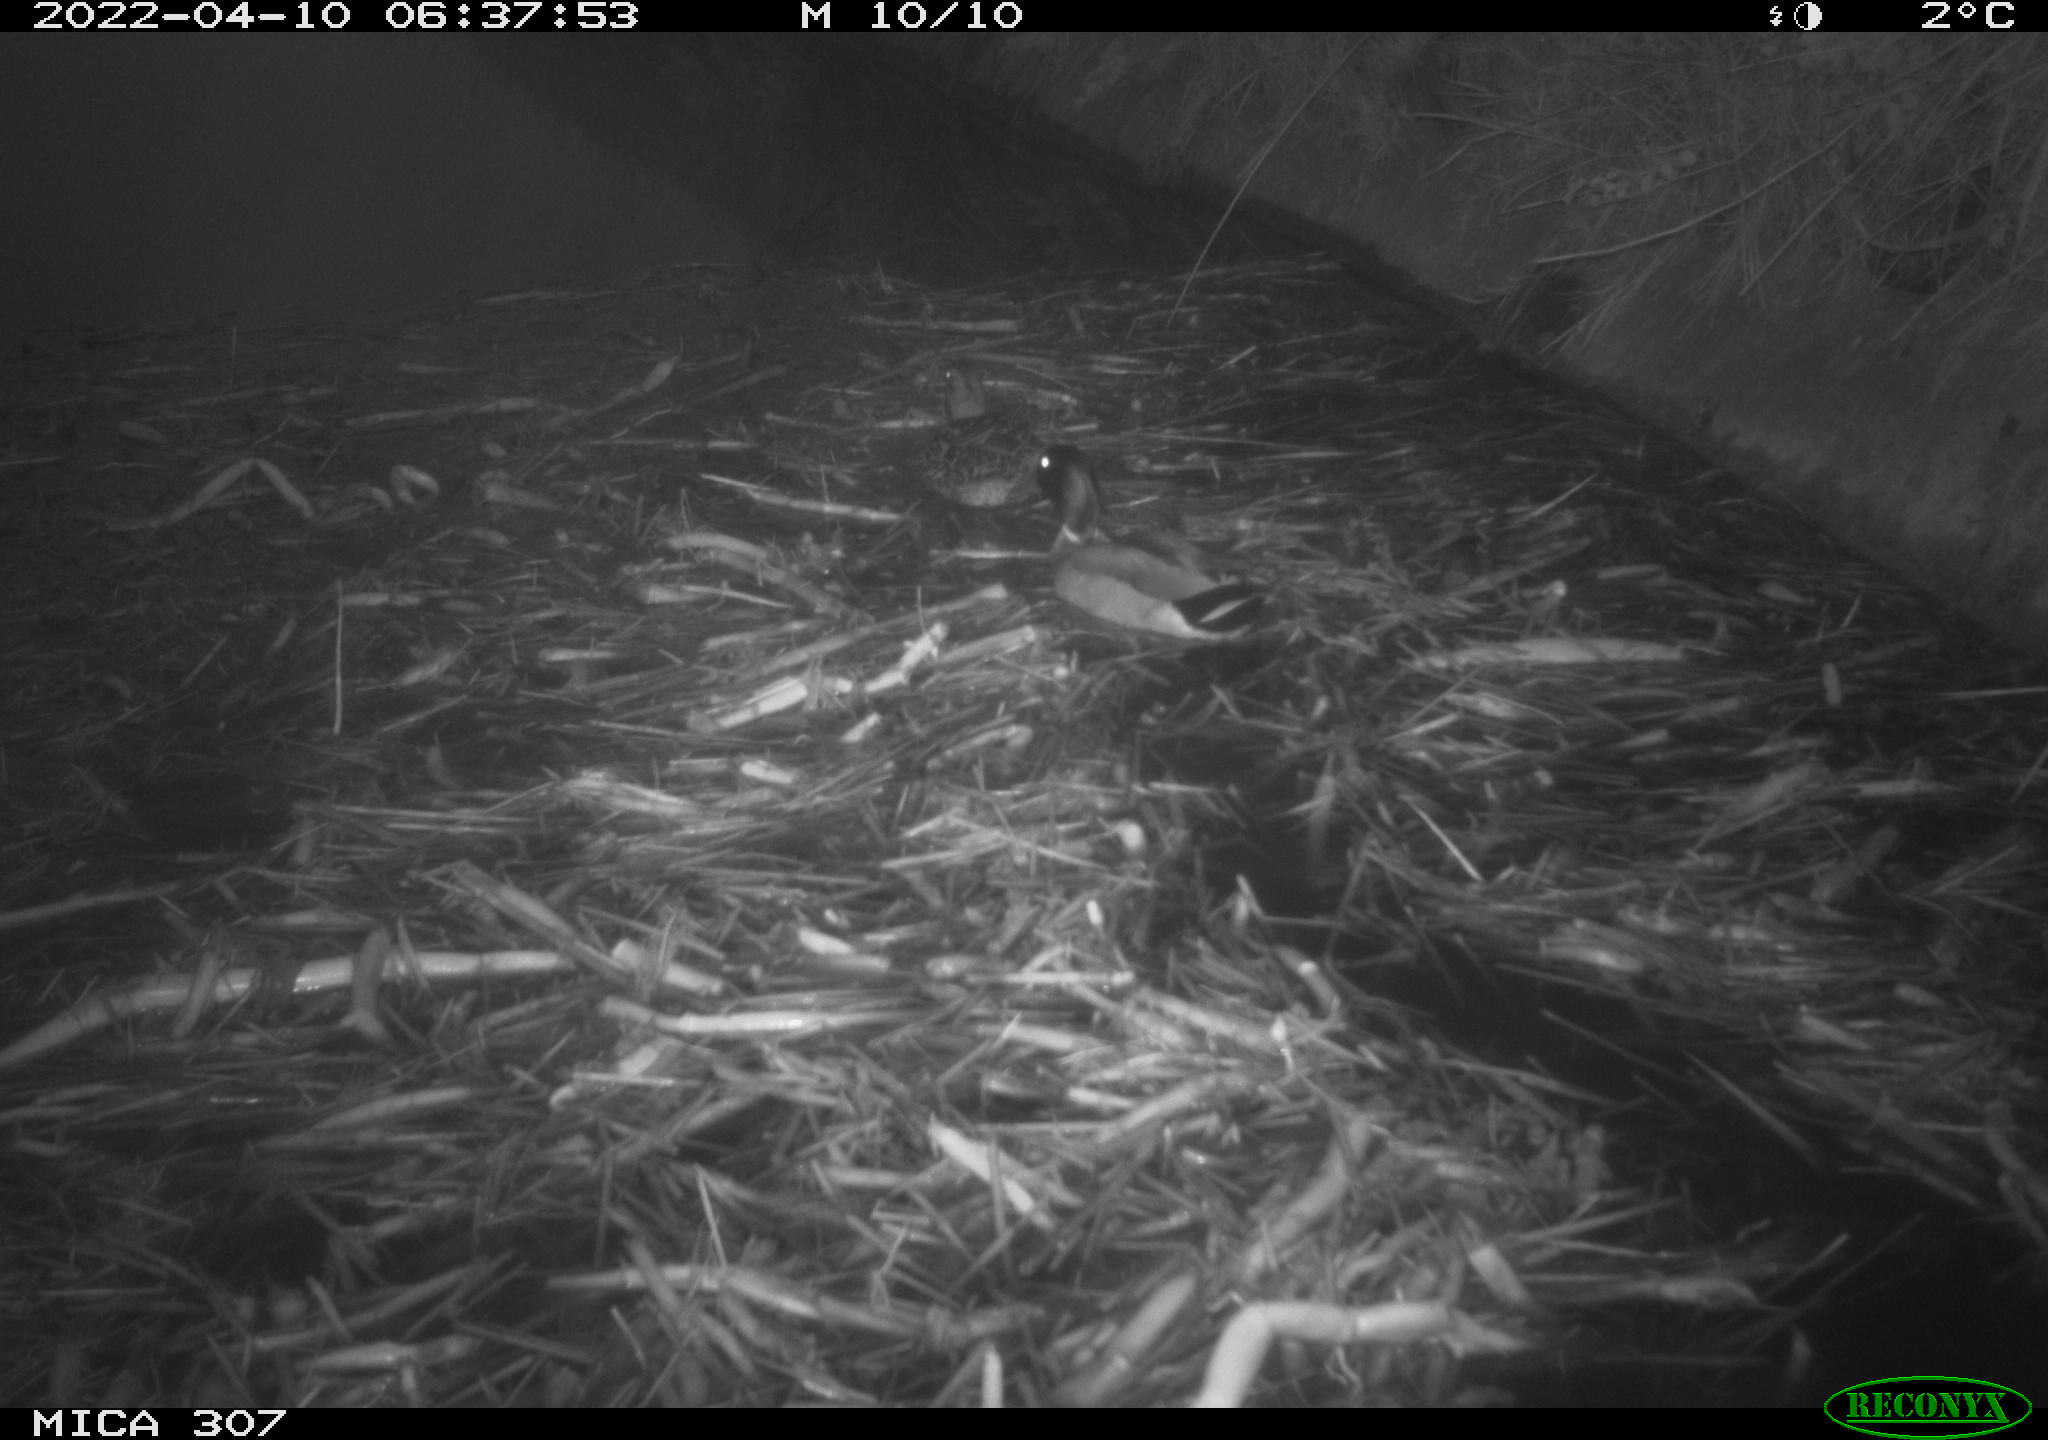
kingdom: Animalia
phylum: Chordata
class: Aves
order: Anseriformes
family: Anatidae
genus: Anas
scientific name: Anas platyrhynchos
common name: Mallard
